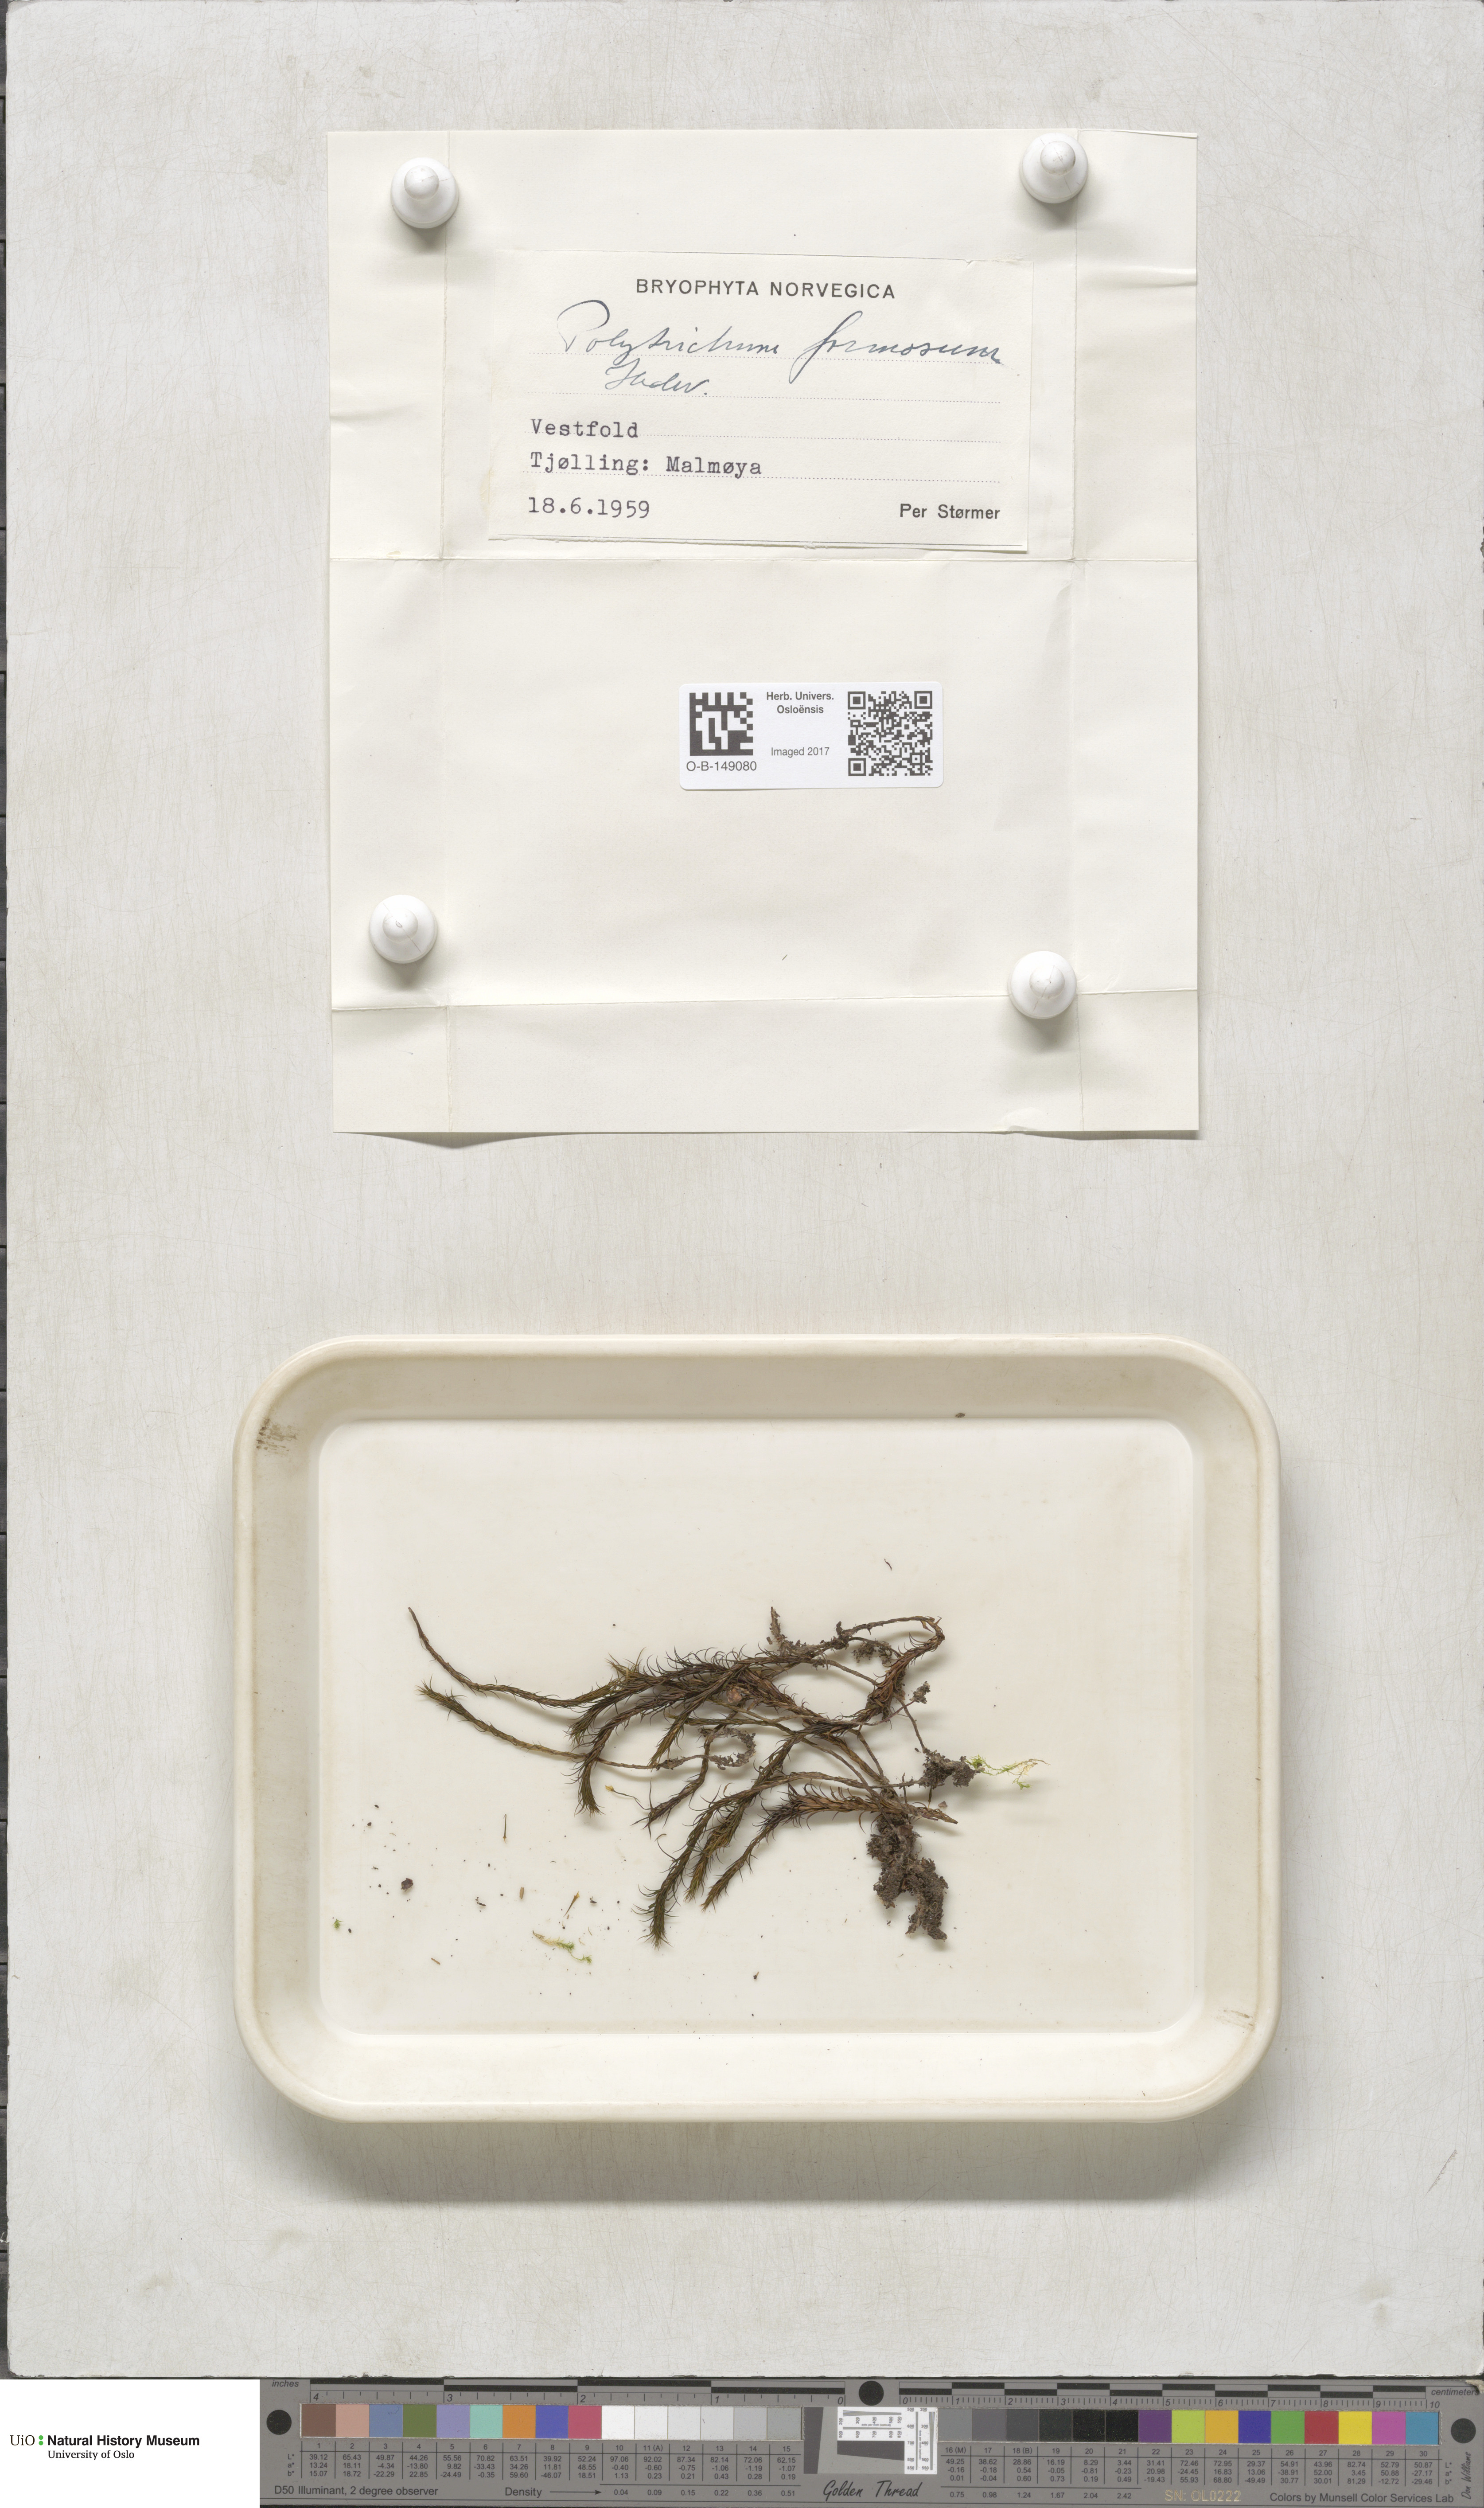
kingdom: Plantae
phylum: Bryophyta
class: Polytrichopsida
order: Polytrichales
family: Polytrichaceae
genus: Polytrichum
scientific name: Polytrichum formosum
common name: Bank haircap moss
